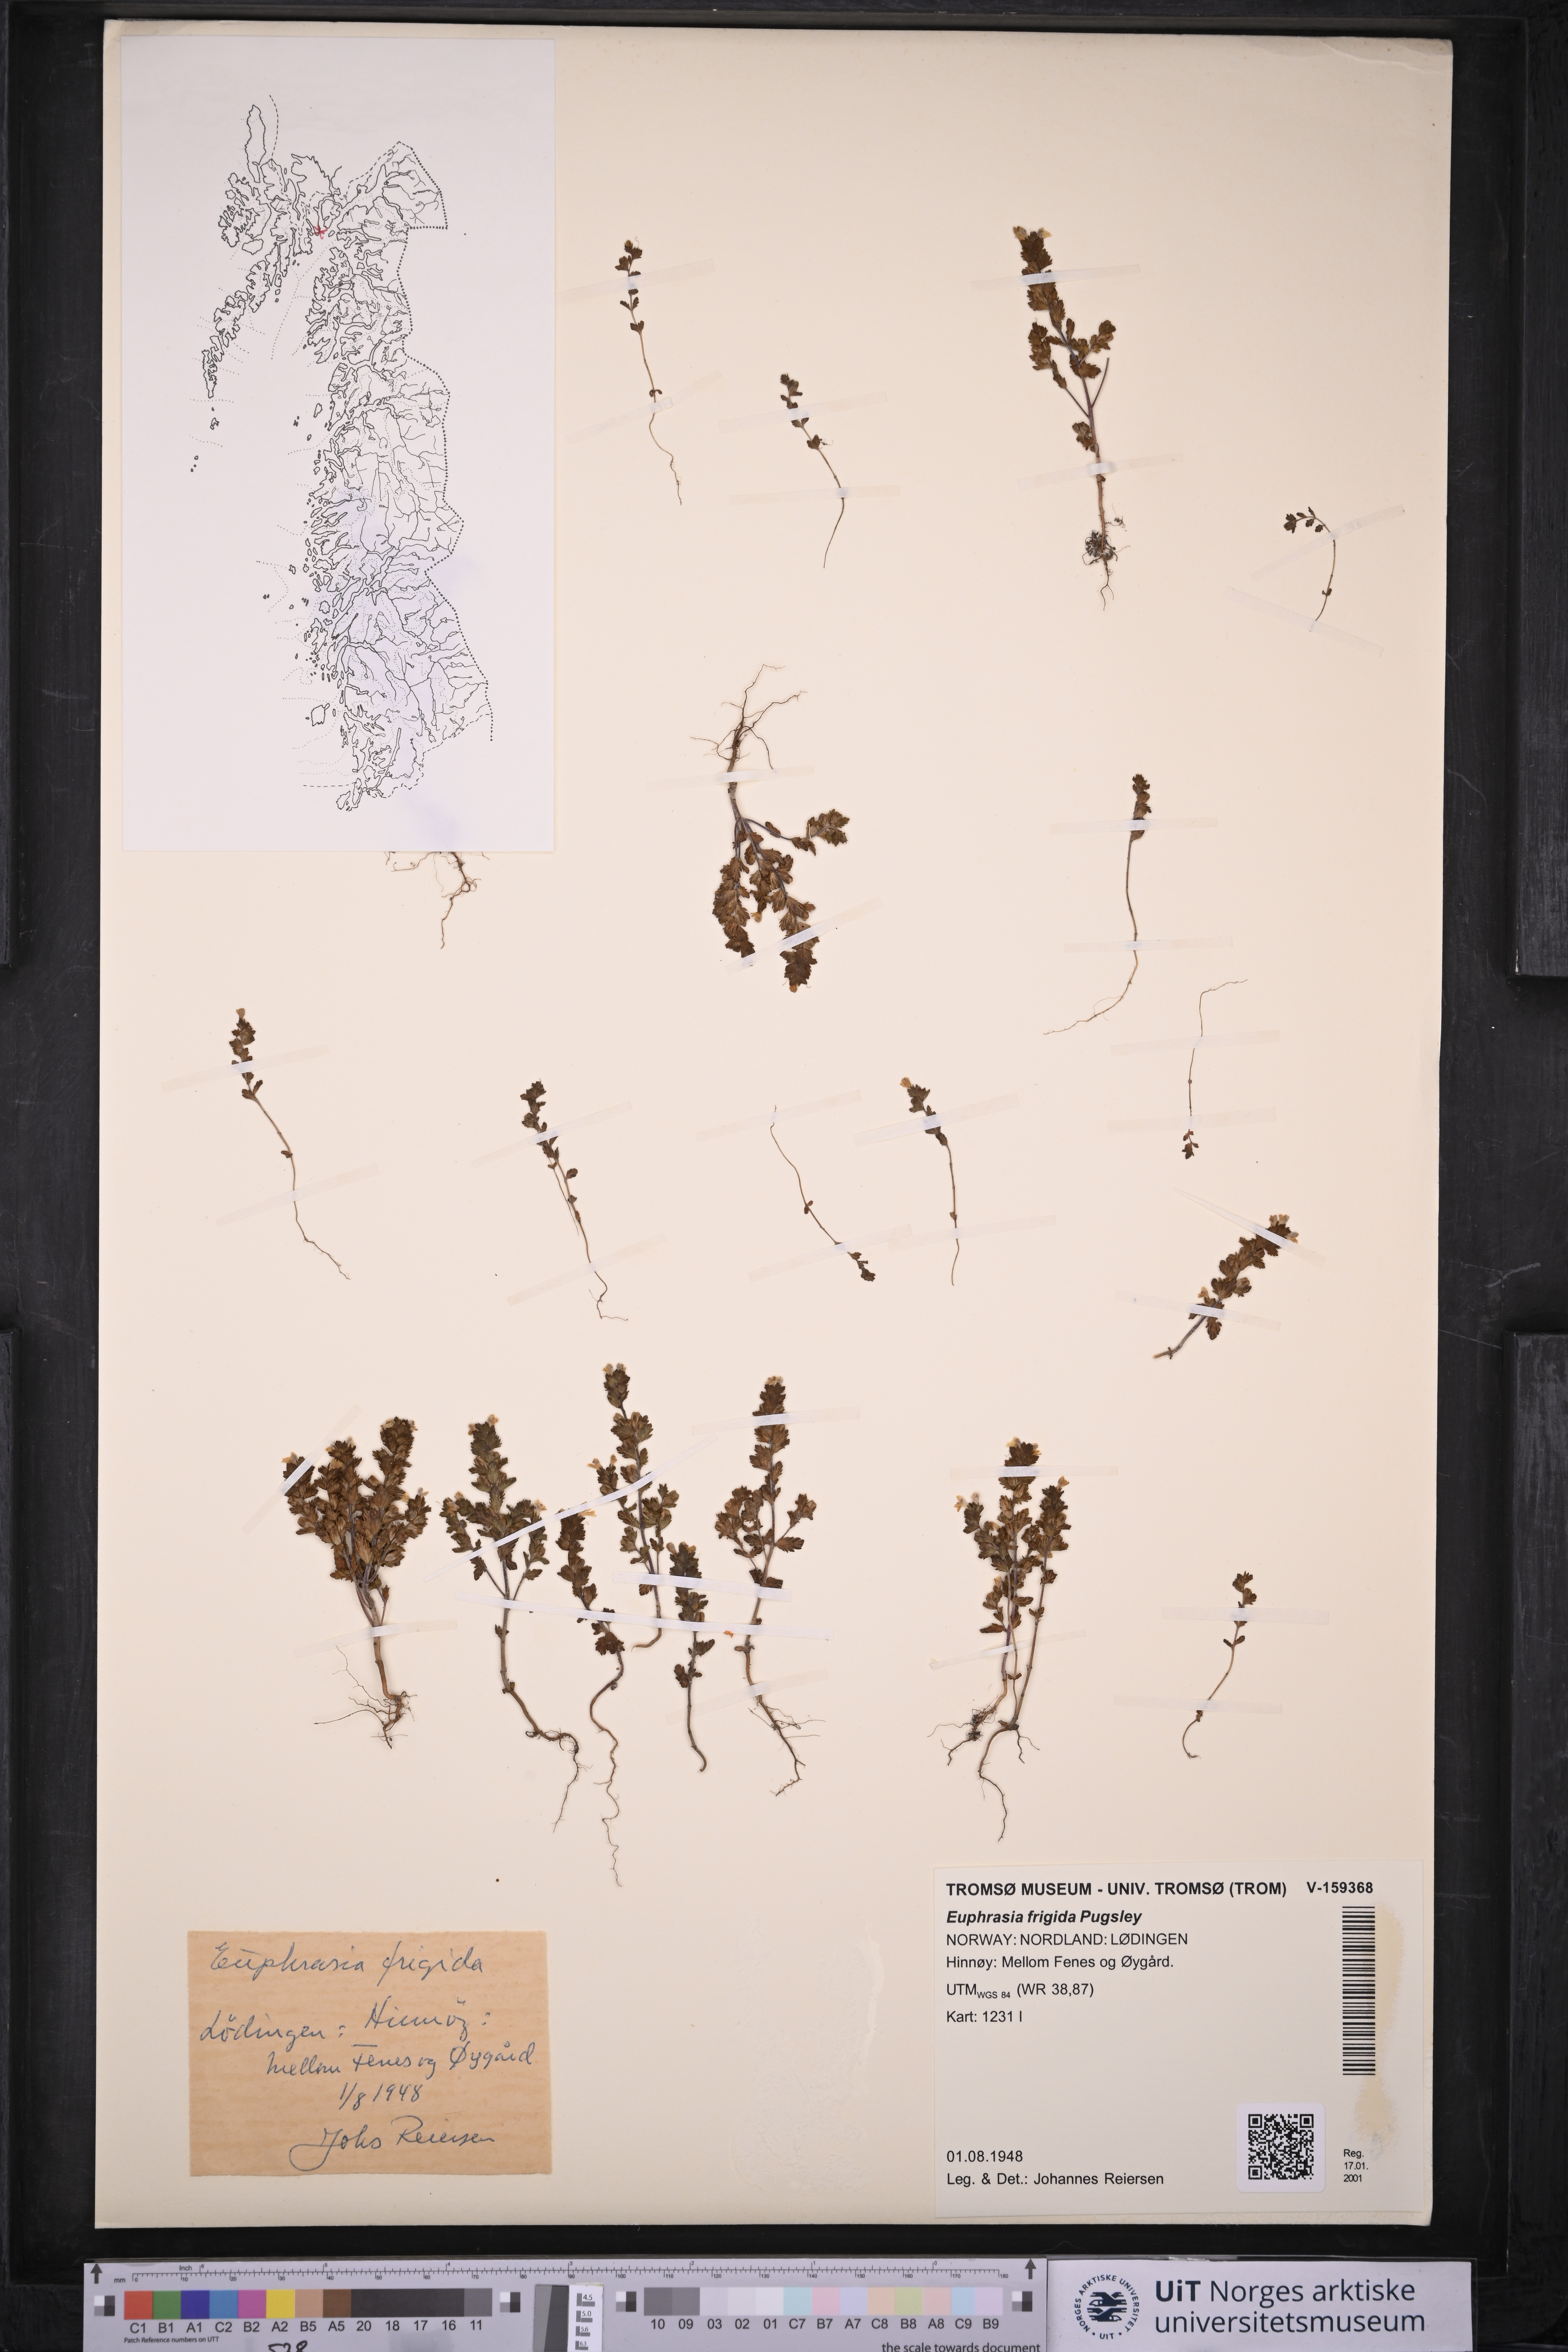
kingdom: Plantae
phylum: Tracheophyta
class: Magnoliopsida
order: Lamiales
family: Orobanchaceae
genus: Euphrasia
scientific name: Euphrasia frigida
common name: An eyebright
